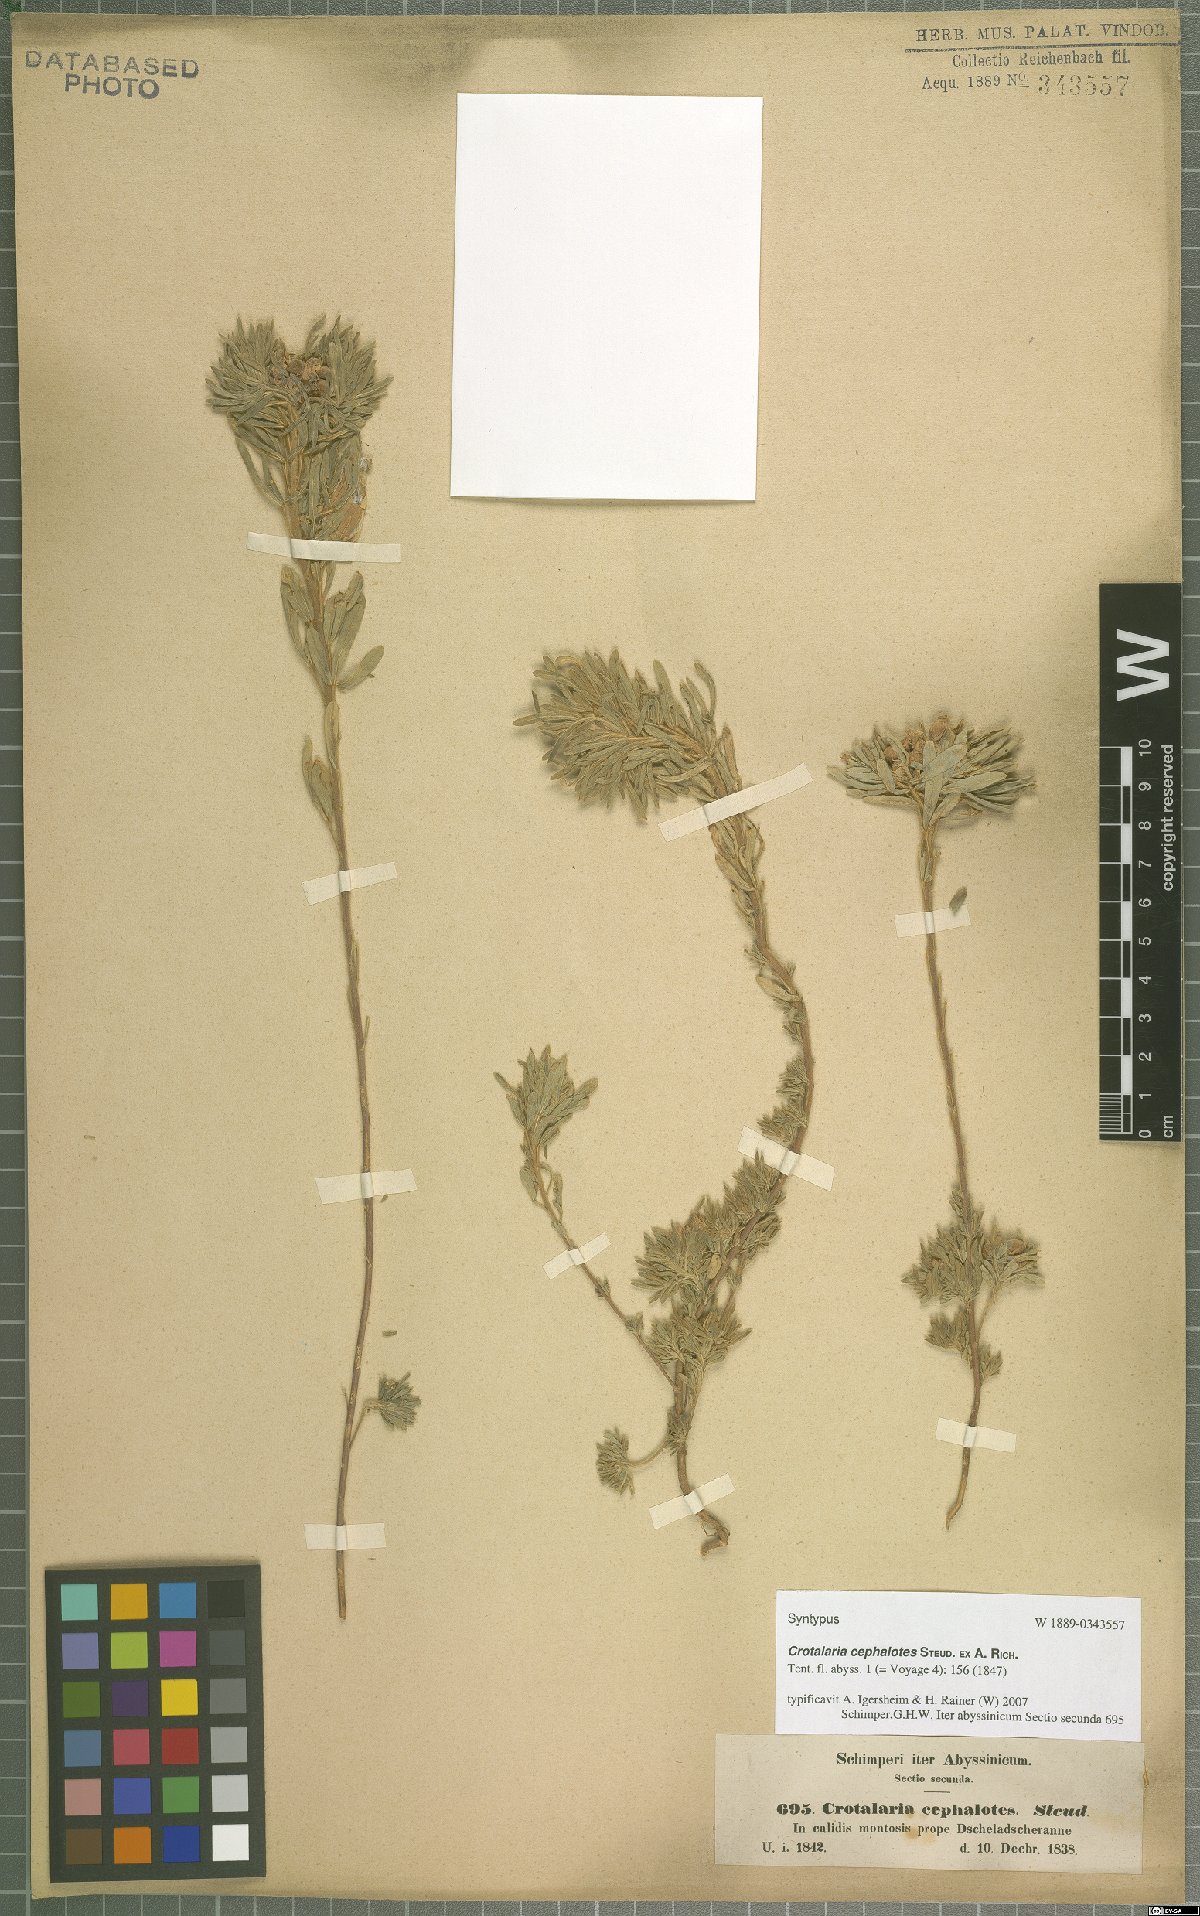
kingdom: Plantae
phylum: Tracheophyta
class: Magnoliopsida
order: Fabales
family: Fabaceae
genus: Crotalaria
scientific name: Crotalaria cephalotes
